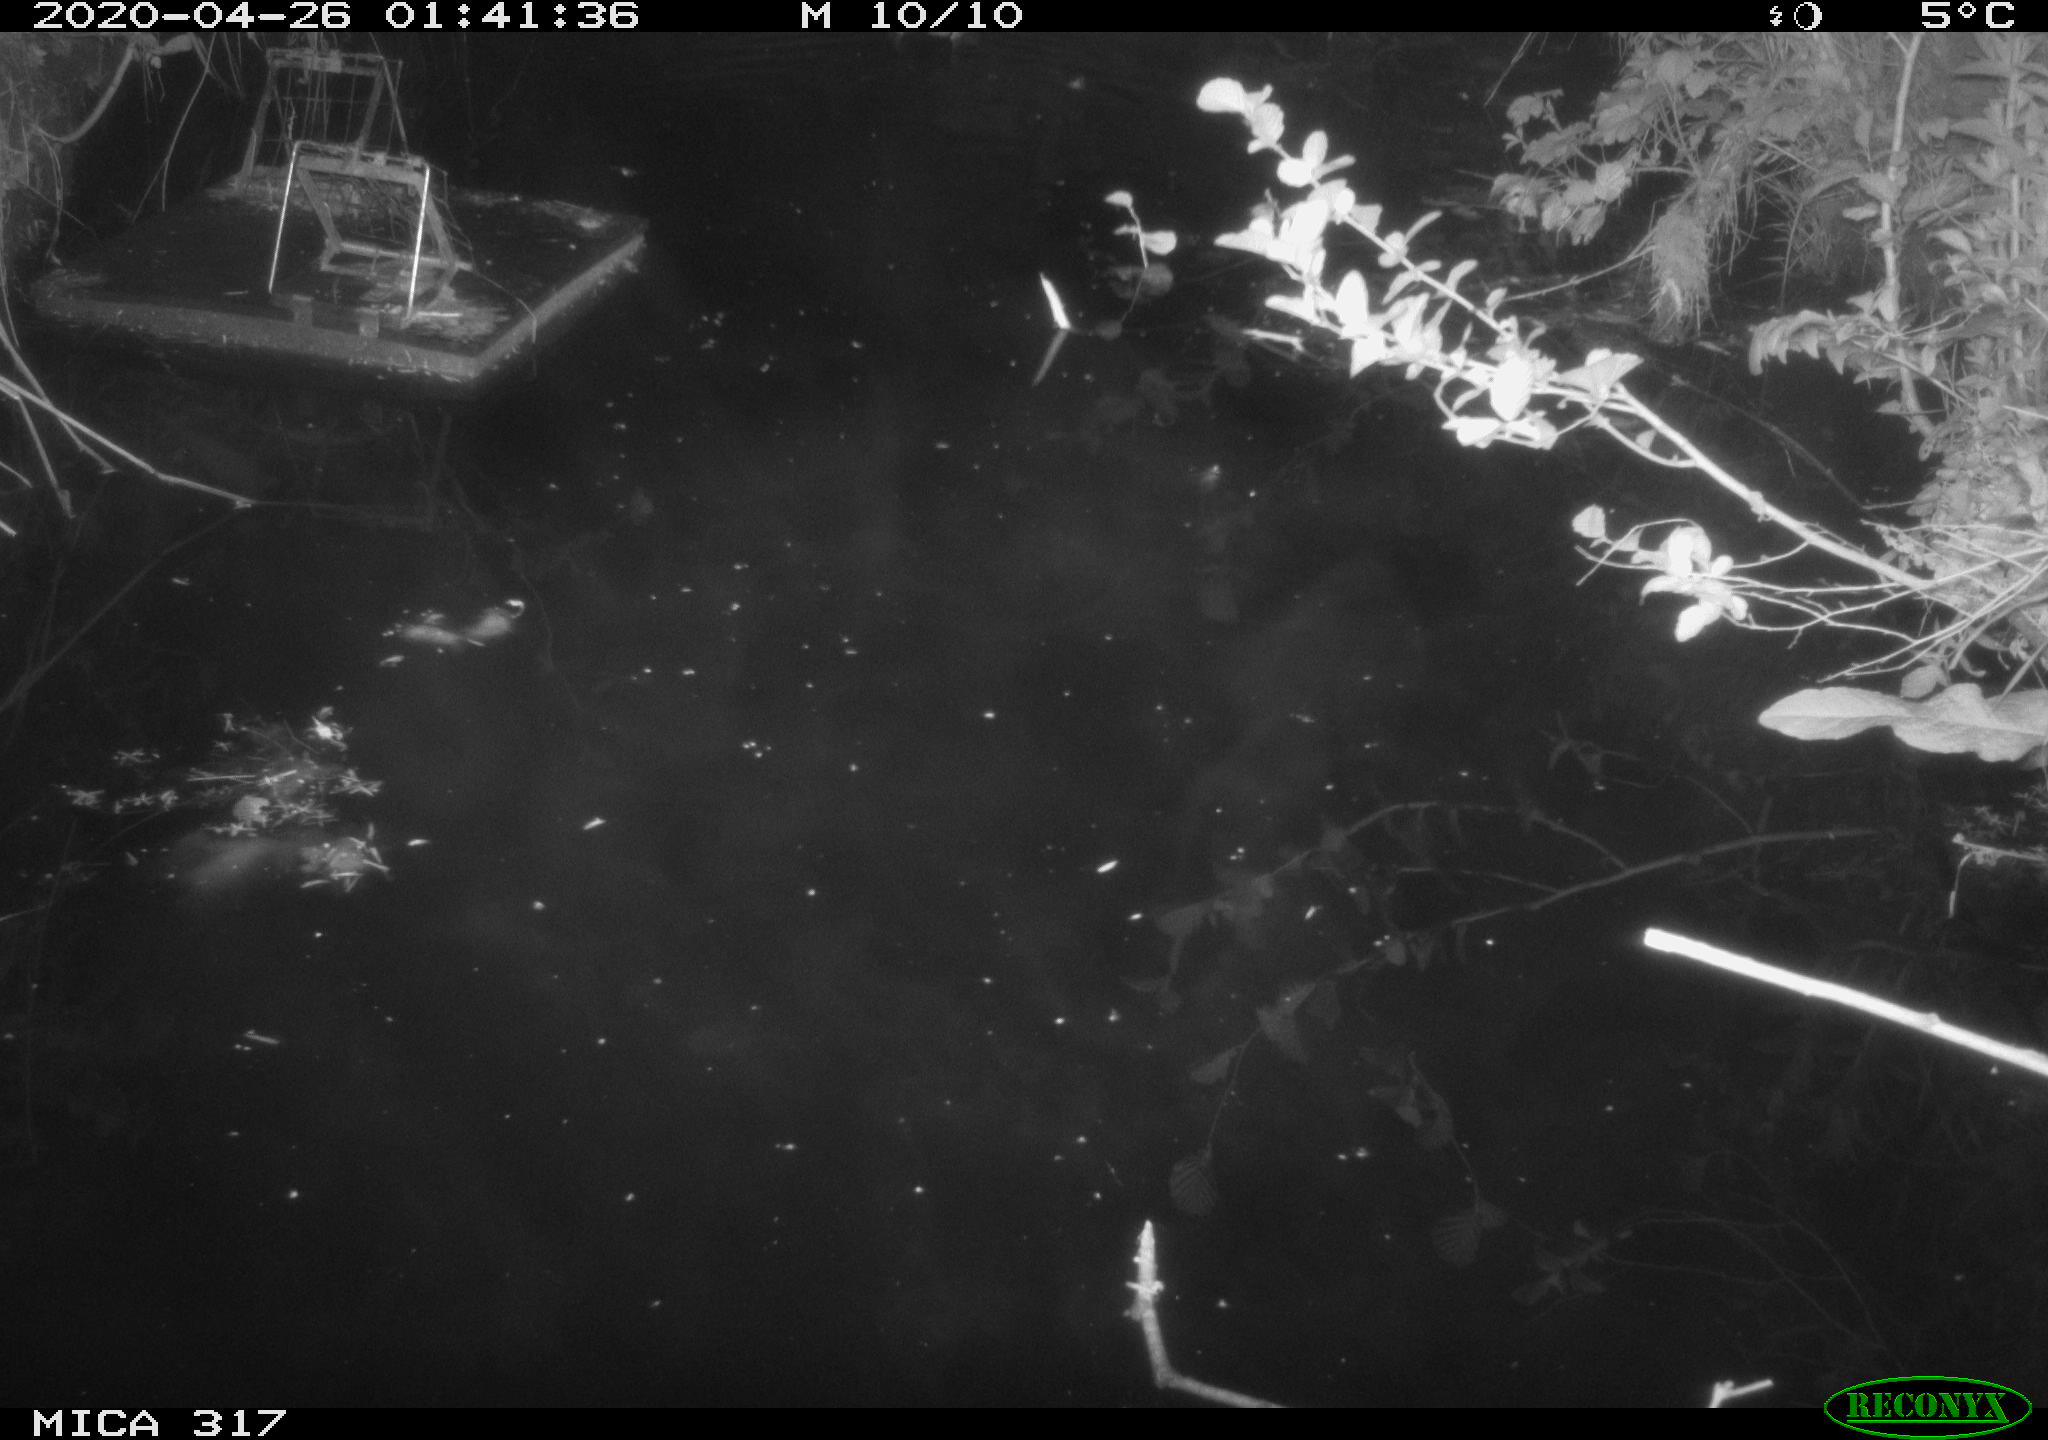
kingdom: Animalia
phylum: Chordata
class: Aves
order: Anseriformes
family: Anatidae
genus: Anas
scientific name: Anas platyrhynchos
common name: Mallard
